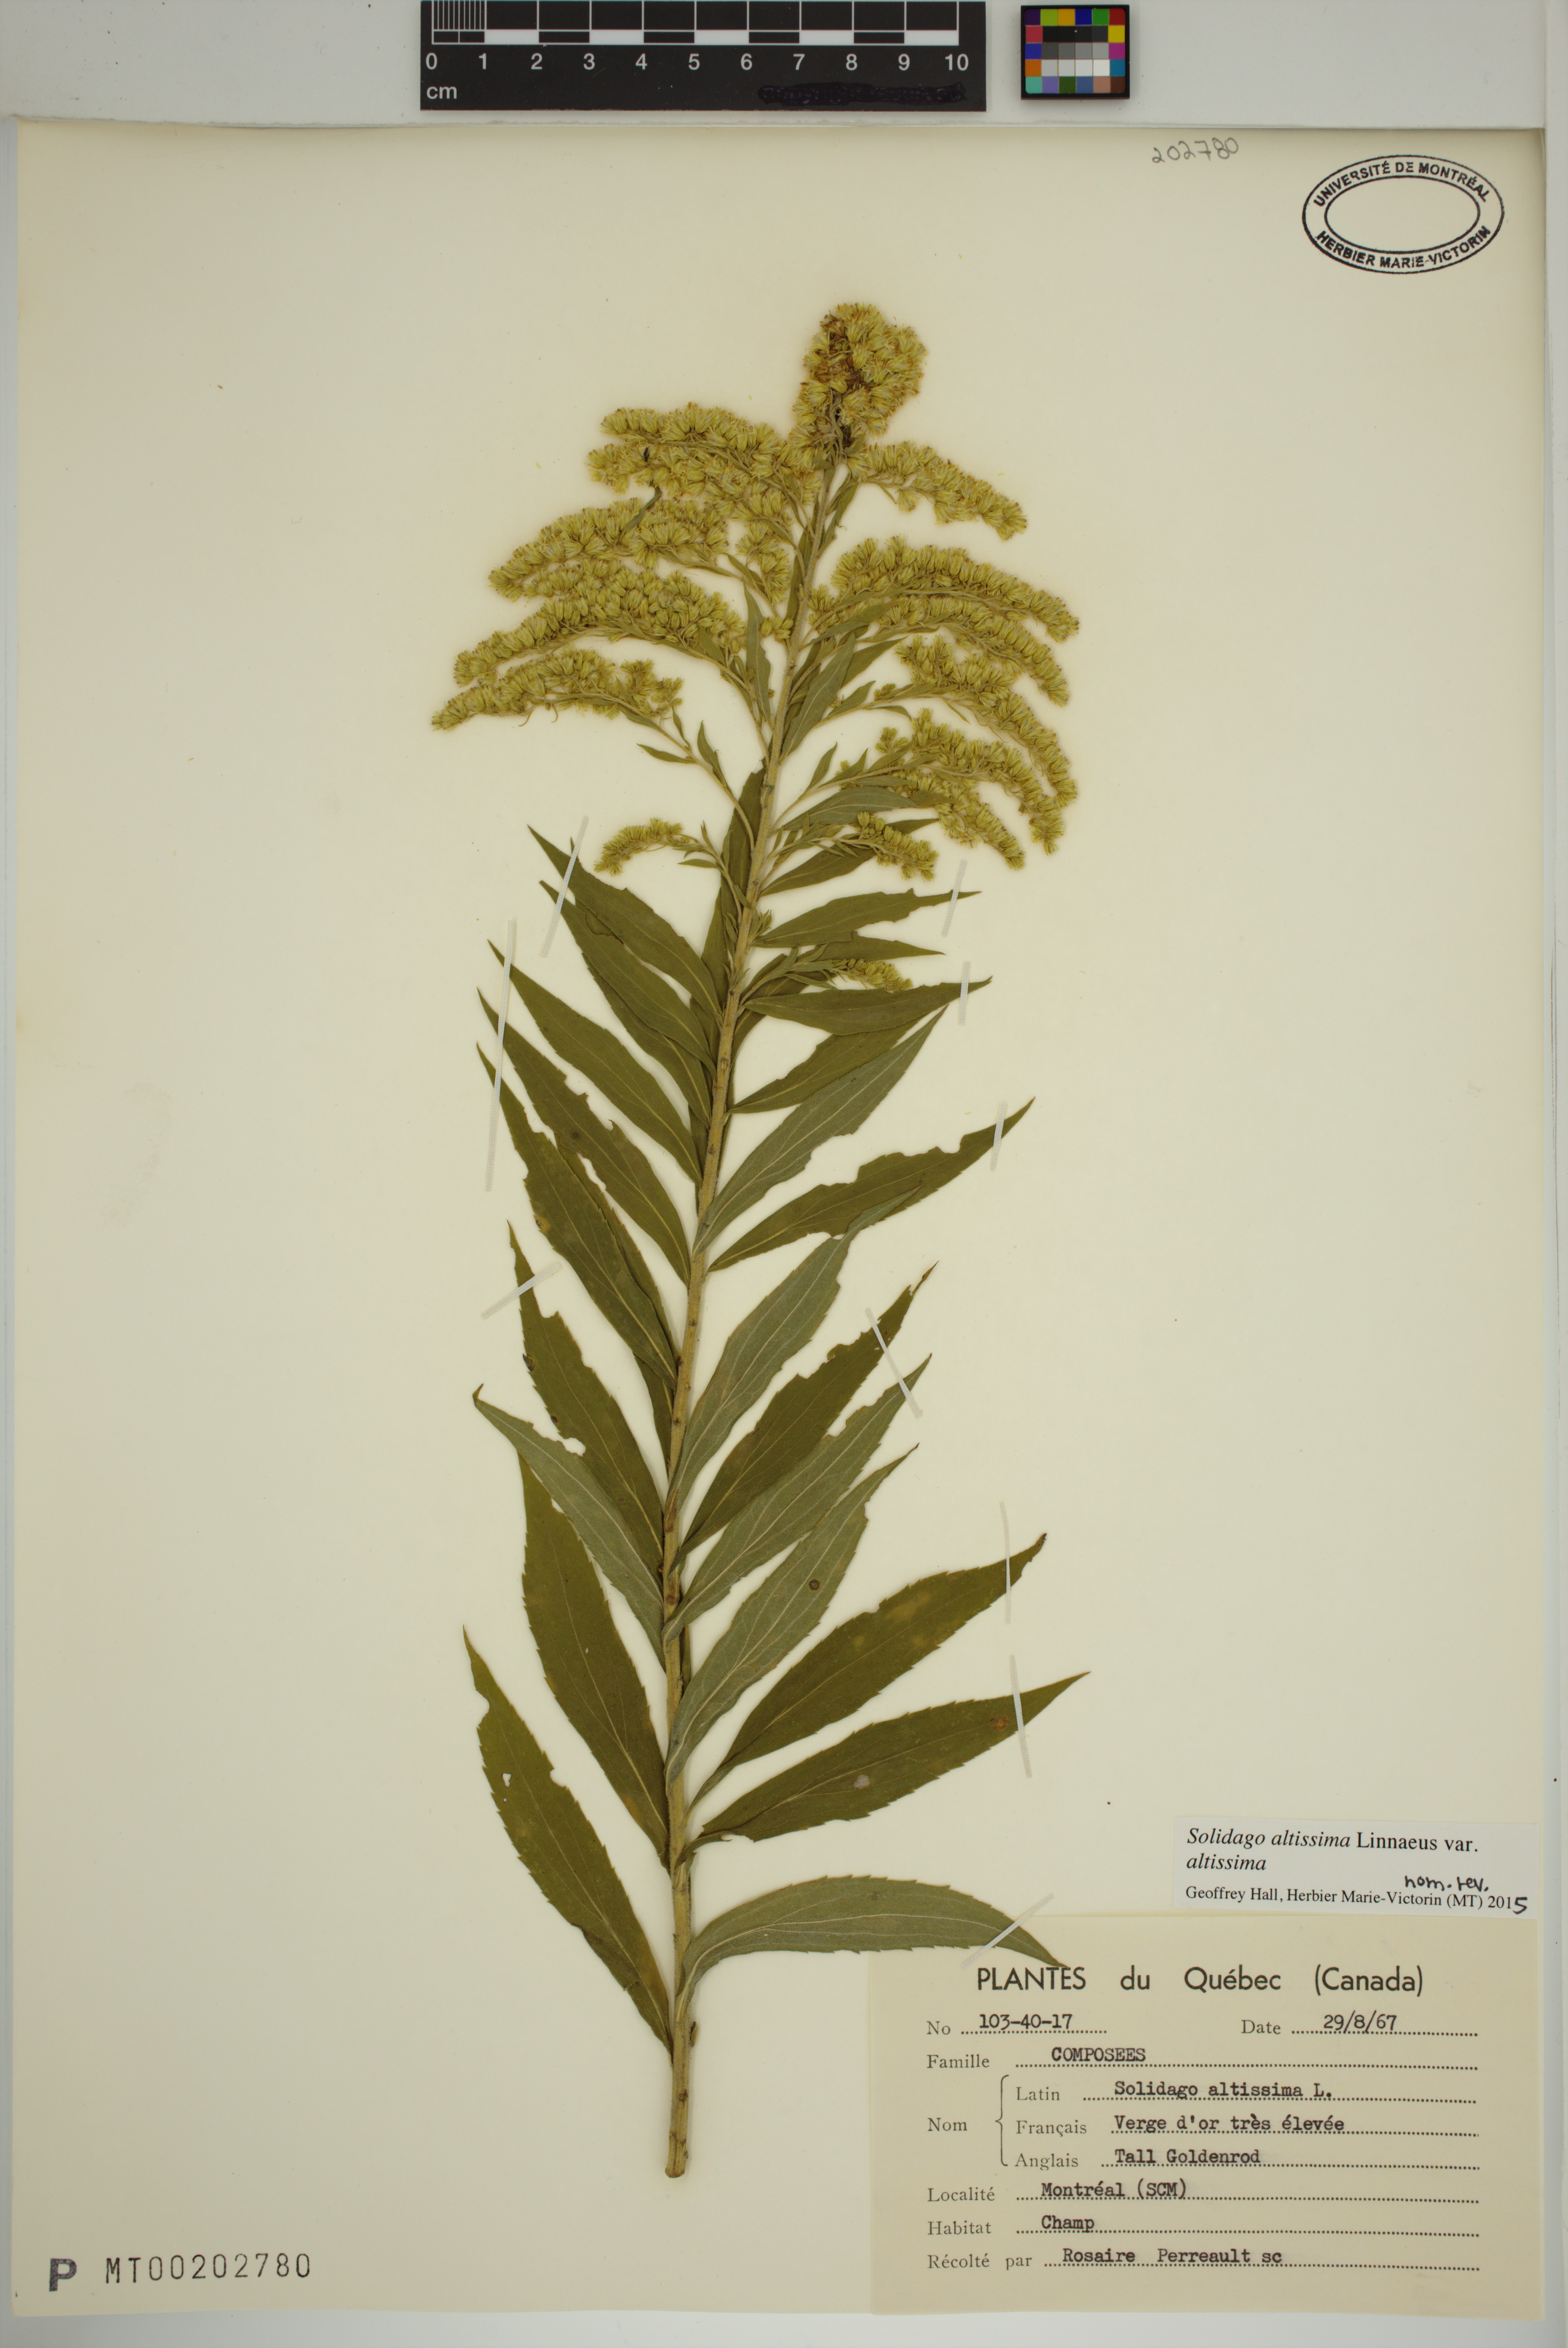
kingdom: Plantae
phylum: Tracheophyta
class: Magnoliopsida
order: Asterales
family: Asteraceae
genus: Solidago
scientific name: Solidago altissima
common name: Late goldenrod
